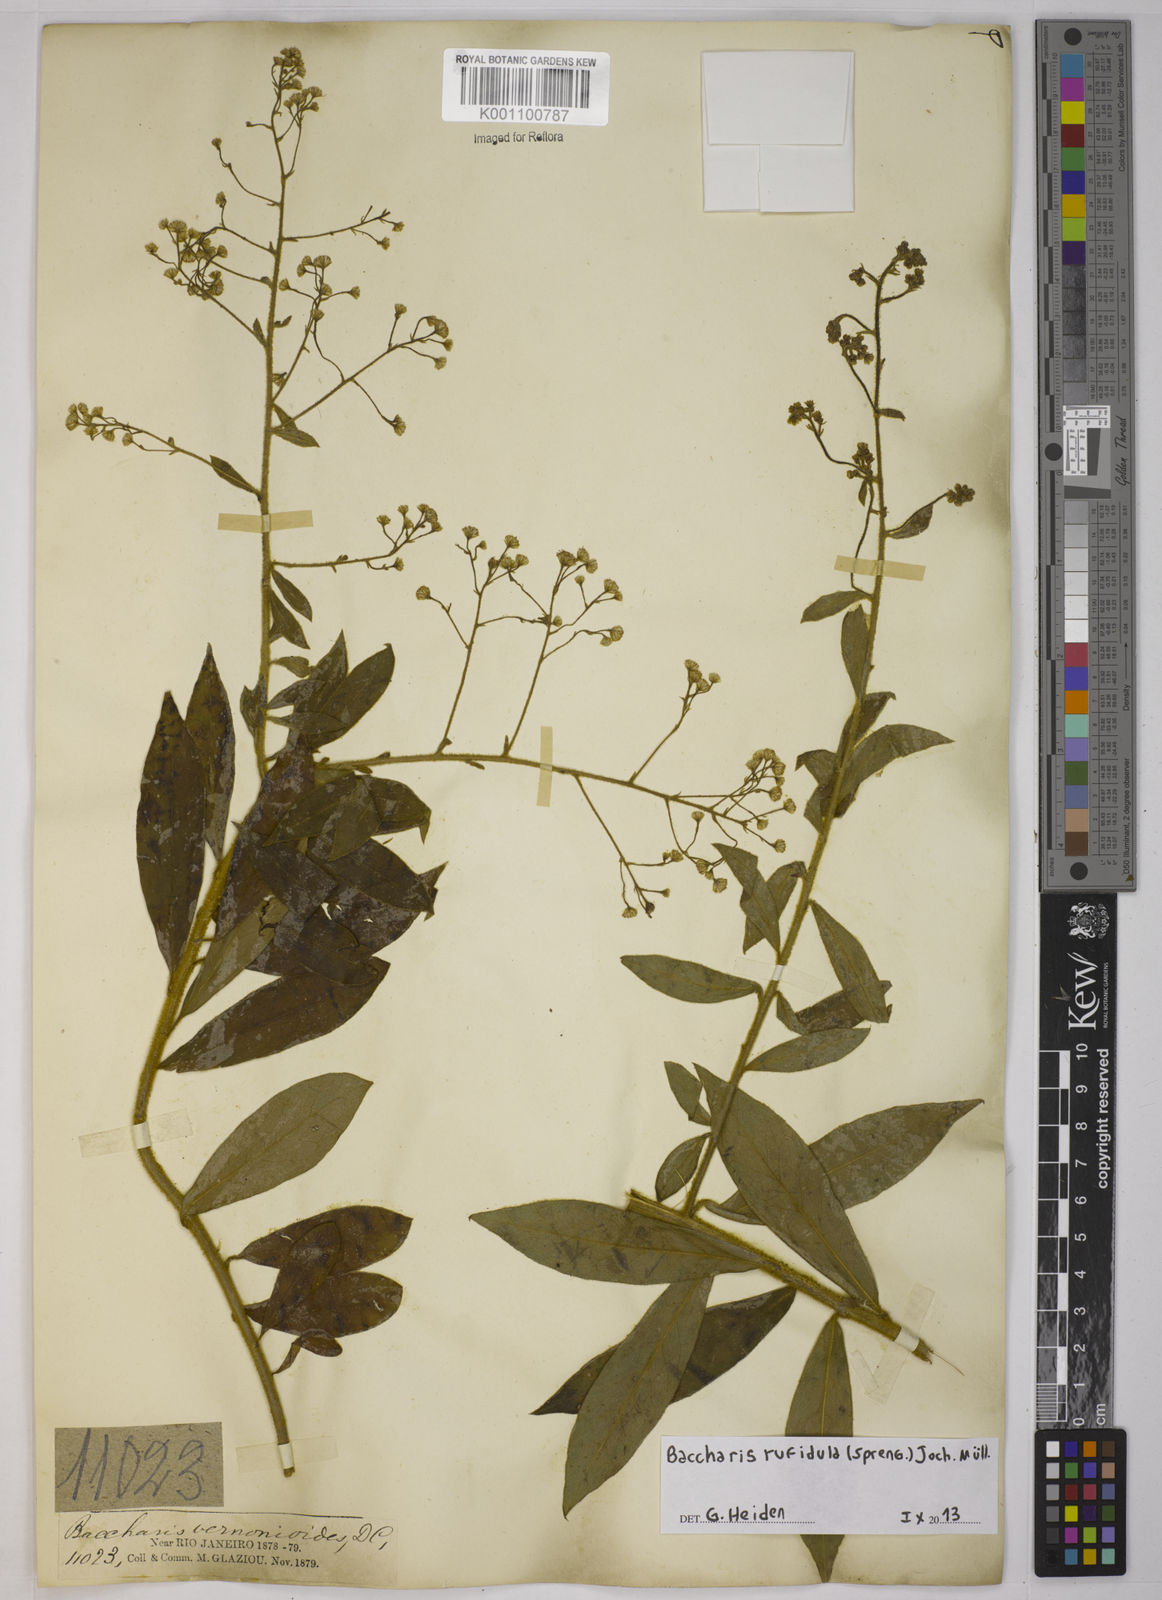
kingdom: Plantae
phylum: Tracheophyta
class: Magnoliopsida
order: Asterales
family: Asteraceae
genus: Baccharis
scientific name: Baccharis rufidula
